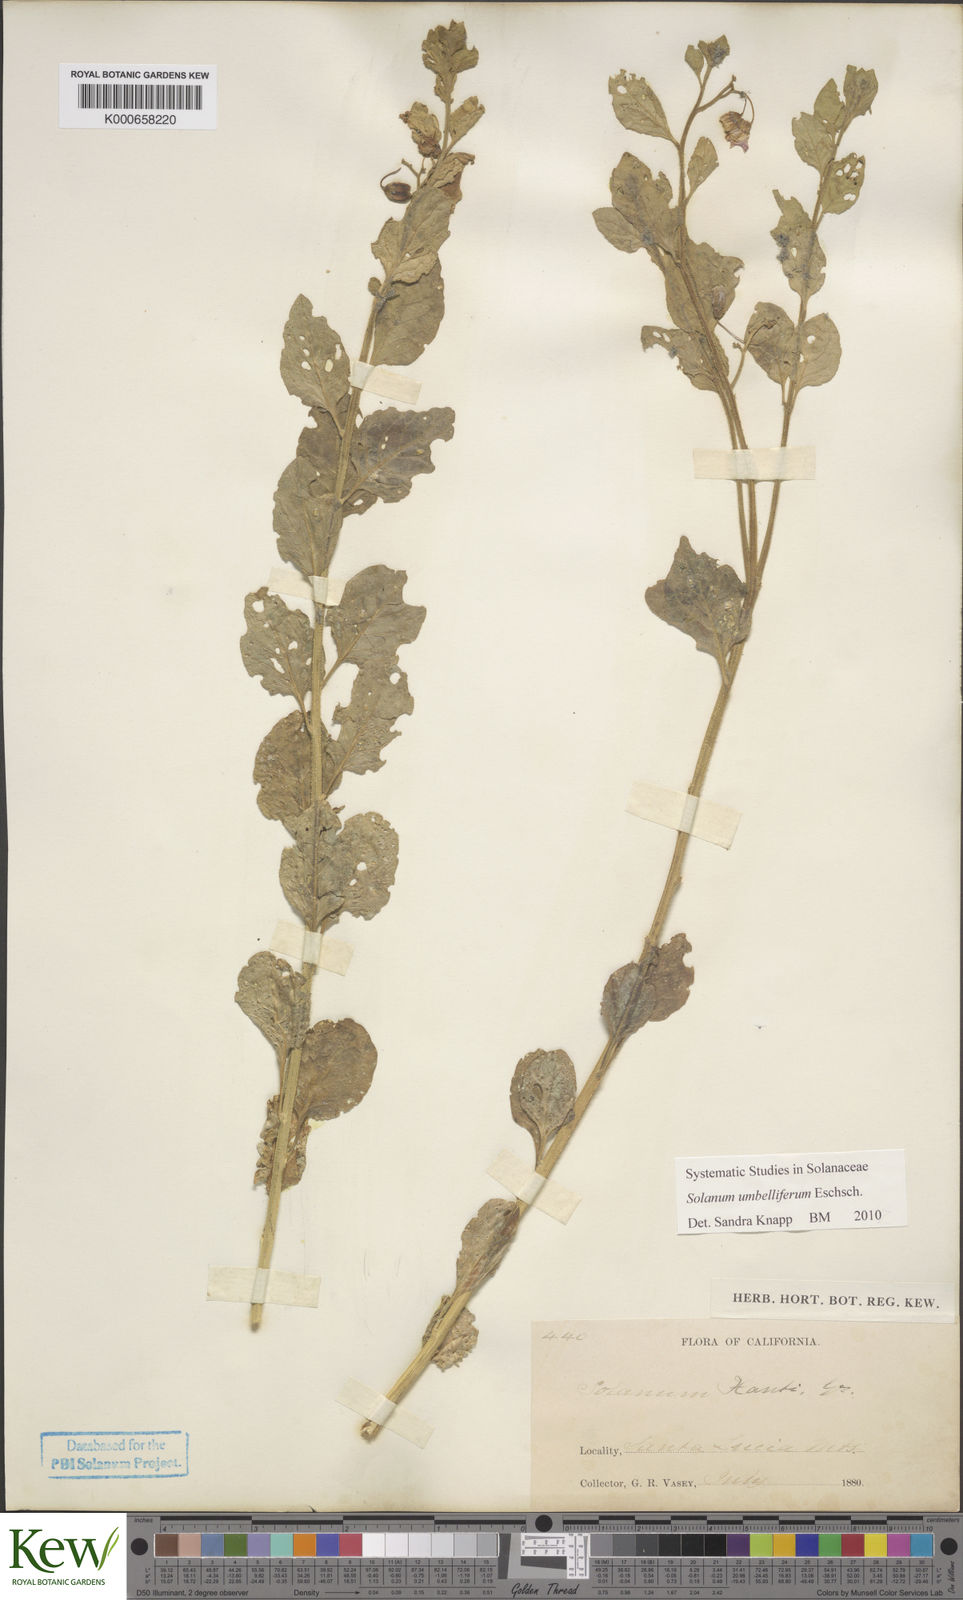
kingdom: Plantae
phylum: Tracheophyta
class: Magnoliopsida
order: Solanales
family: Solanaceae
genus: Solanum
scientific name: Solanum umbelliferum
